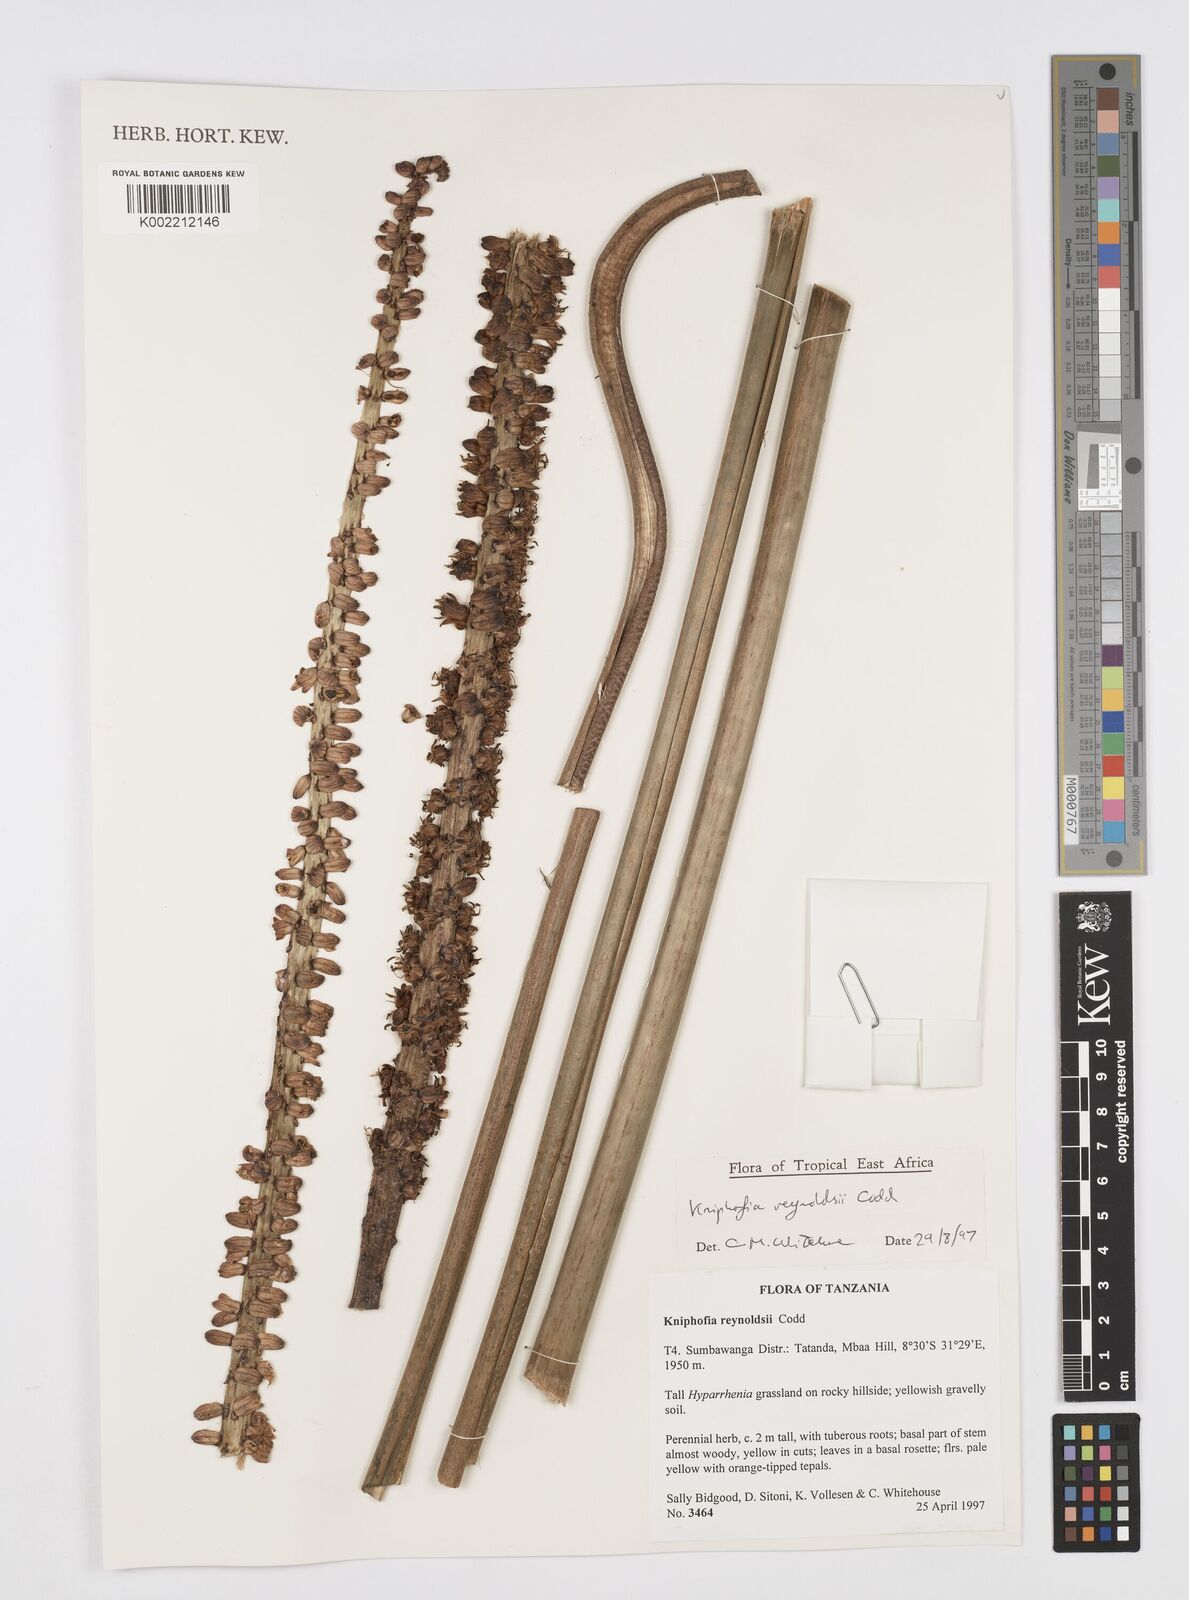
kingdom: Plantae
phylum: Tracheophyta
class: Liliopsida
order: Asparagales
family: Asphodelaceae
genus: Kniphofia
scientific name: Kniphofia reynoldsii
